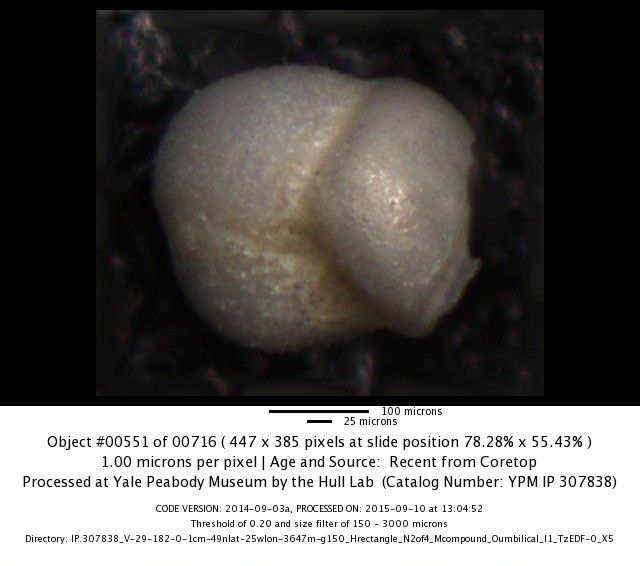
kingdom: Chromista
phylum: Foraminifera
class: Globothalamea
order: Rotaliida
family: Globorotaliidae
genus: Globoconella
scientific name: Globoconella inflata
